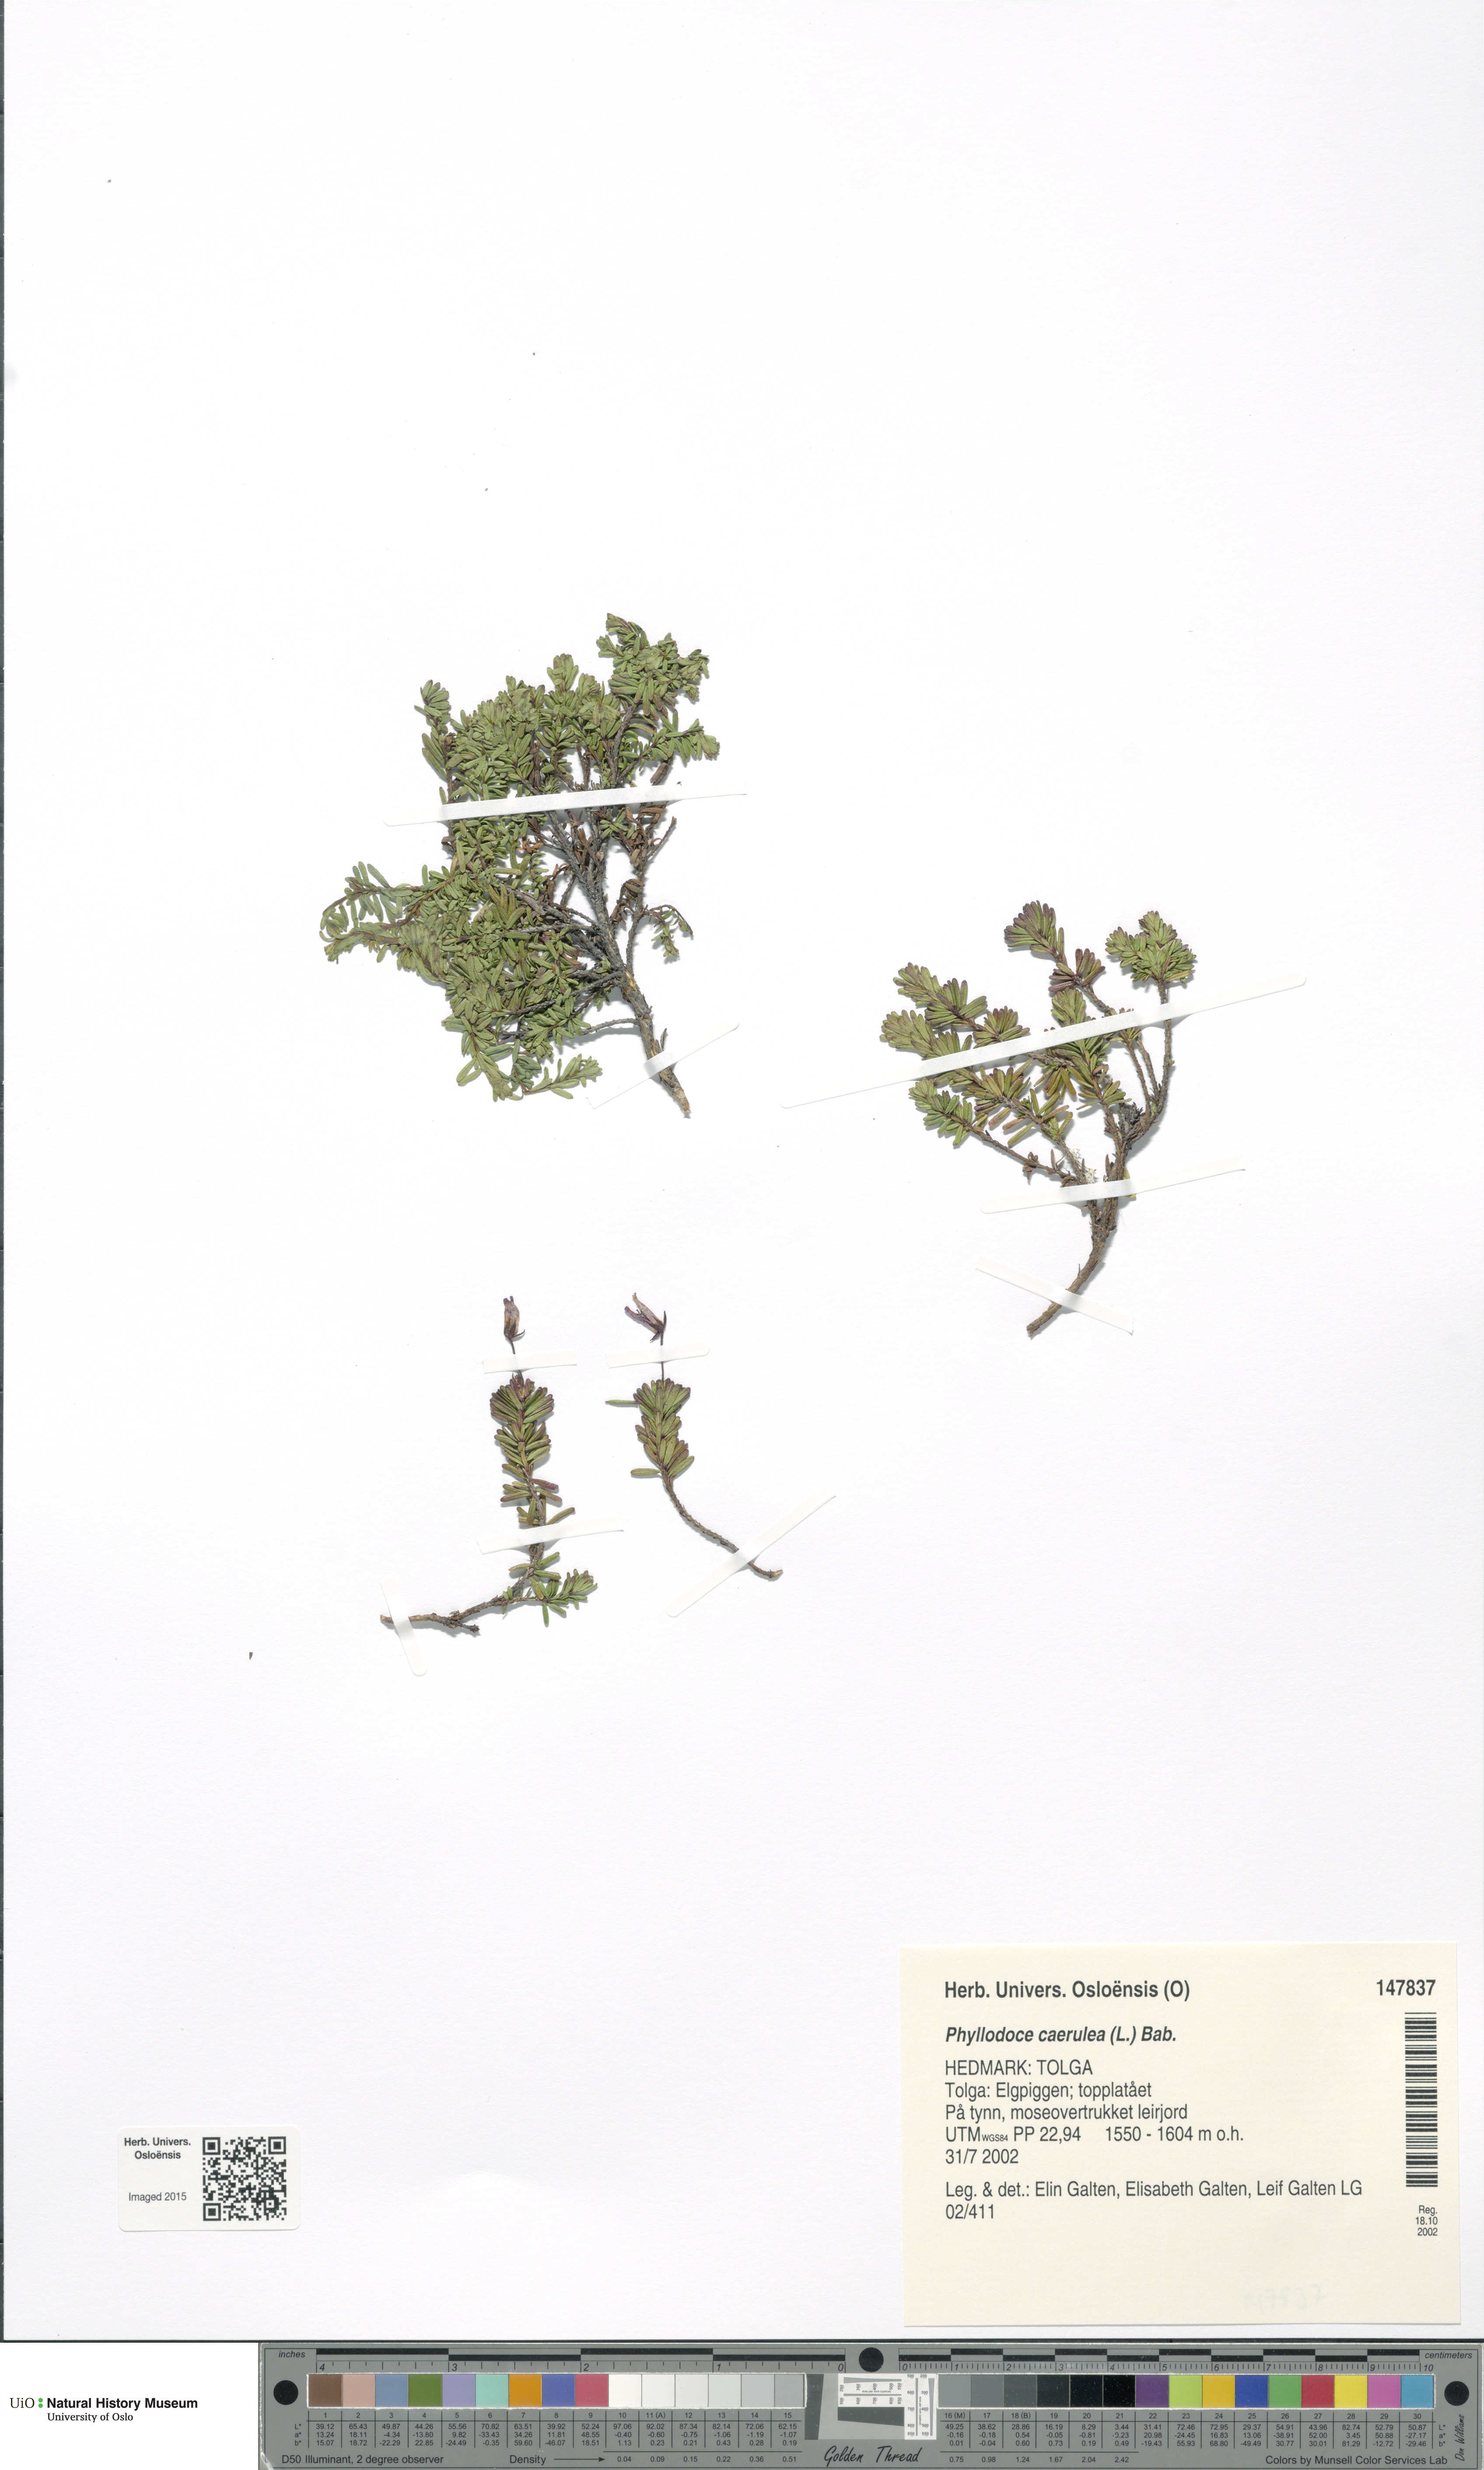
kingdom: Plantae
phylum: Tracheophyta
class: Magnoliopsida
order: Ericales
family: Ericaceae
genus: Phyllodoce
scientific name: Phyllodoce caerulea
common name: Blue heath
